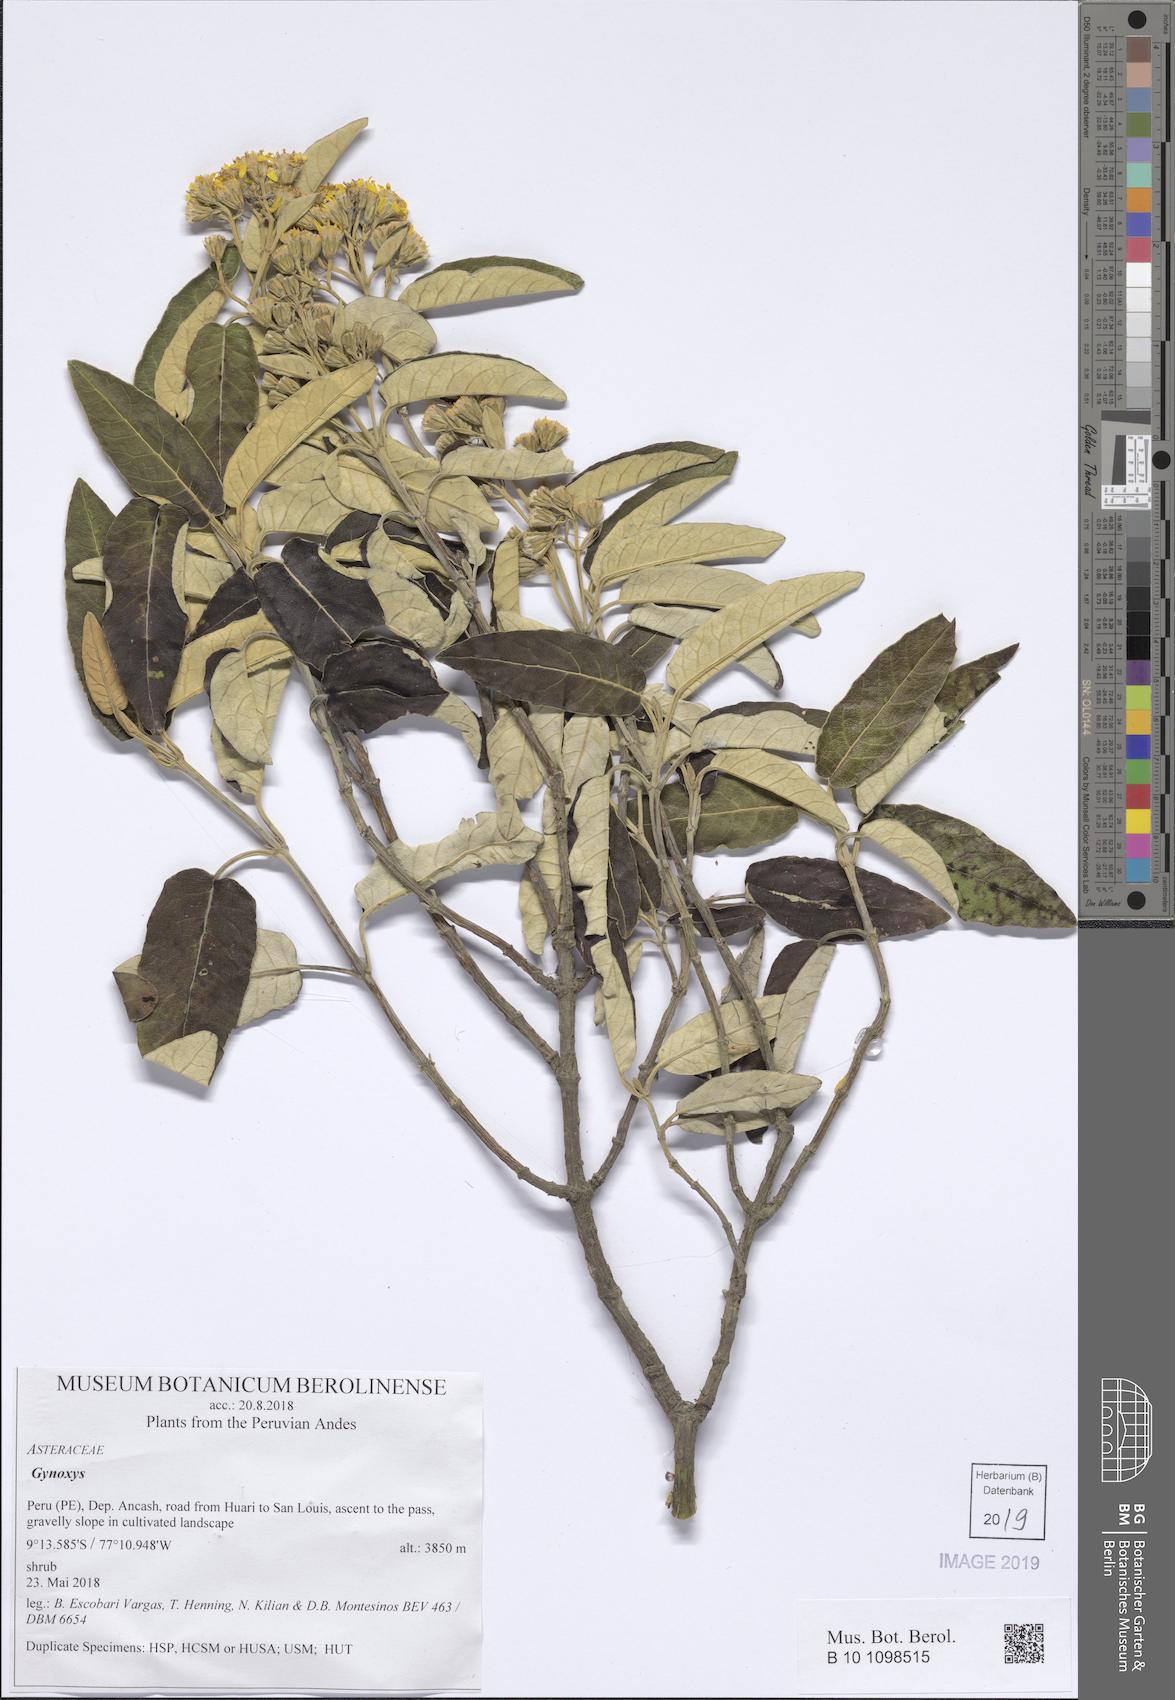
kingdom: Plantae
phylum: Tracheophyta
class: Magnoliopsida
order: Asterales
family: Asteraceae
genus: Gynoxys
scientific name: Gynoxys
